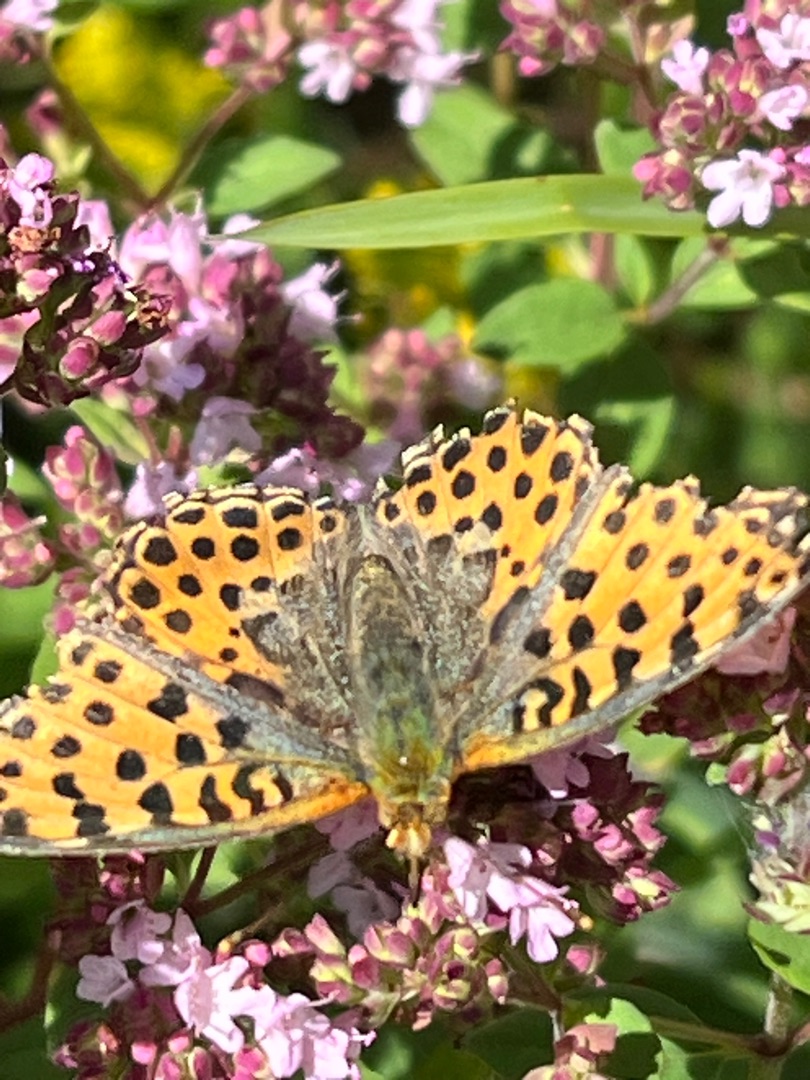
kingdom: Animalia
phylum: Arthropoda
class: Insecta
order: Lepidoptera
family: Nymphalidae
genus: Issoria
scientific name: Issoria lathonia
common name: Storplettet perlemorsommerfugl
